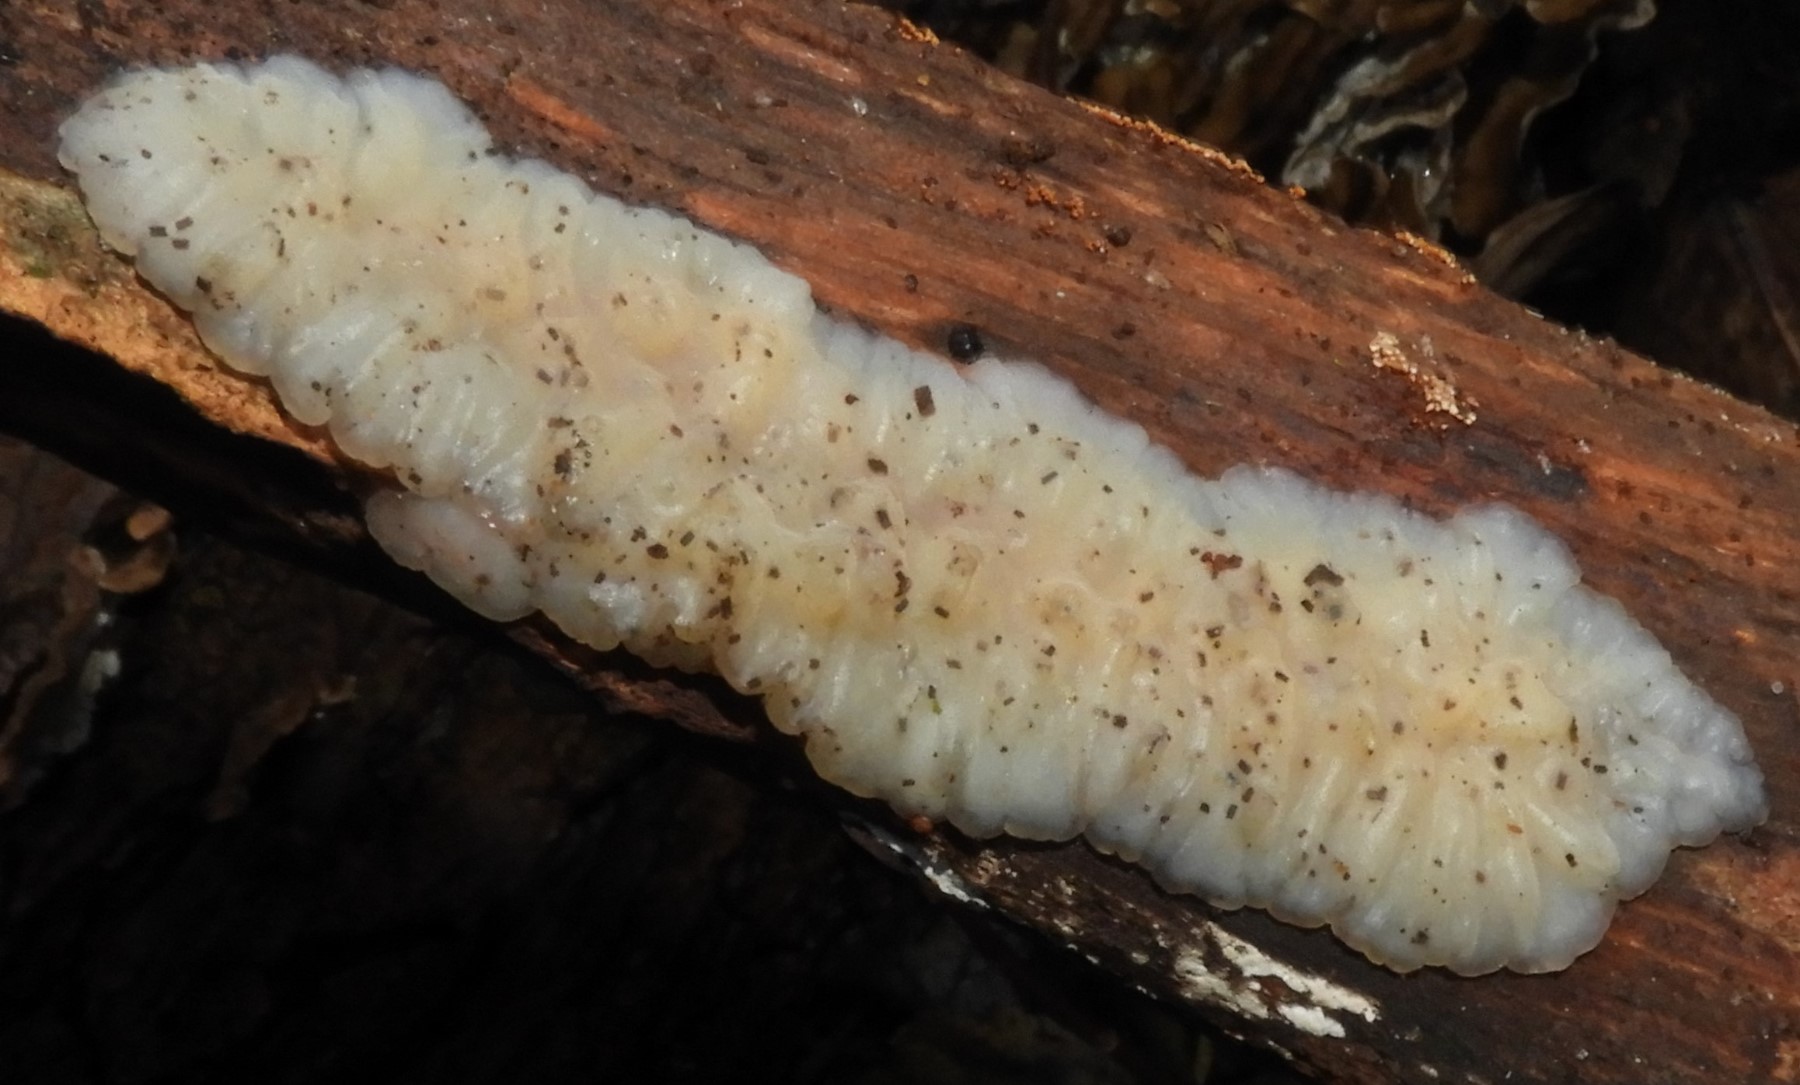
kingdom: Fungi
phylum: Basidiomycota
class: Agaricomycetes
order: Auriculariales
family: Auriculariaceae
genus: Exidia
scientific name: Exidia thuretiana
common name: hvidlig bævretop
